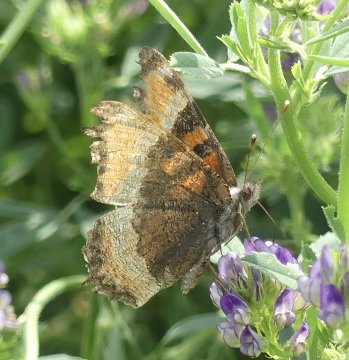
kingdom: Animalia
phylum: Arthropoda
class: Insecta
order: Lepidoptera
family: Nymphalidae
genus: Aglais
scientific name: Aglais milberti
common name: Milbert's Tortoiseshell
